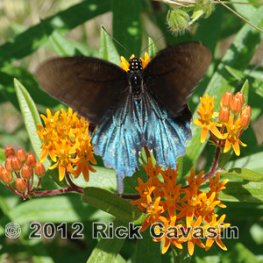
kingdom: Animalia
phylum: Arthropoda
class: Insecta
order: Lepidoptera
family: Papilionidae
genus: Battus
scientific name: Battus philenor
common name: Pipevine Swallowtail
